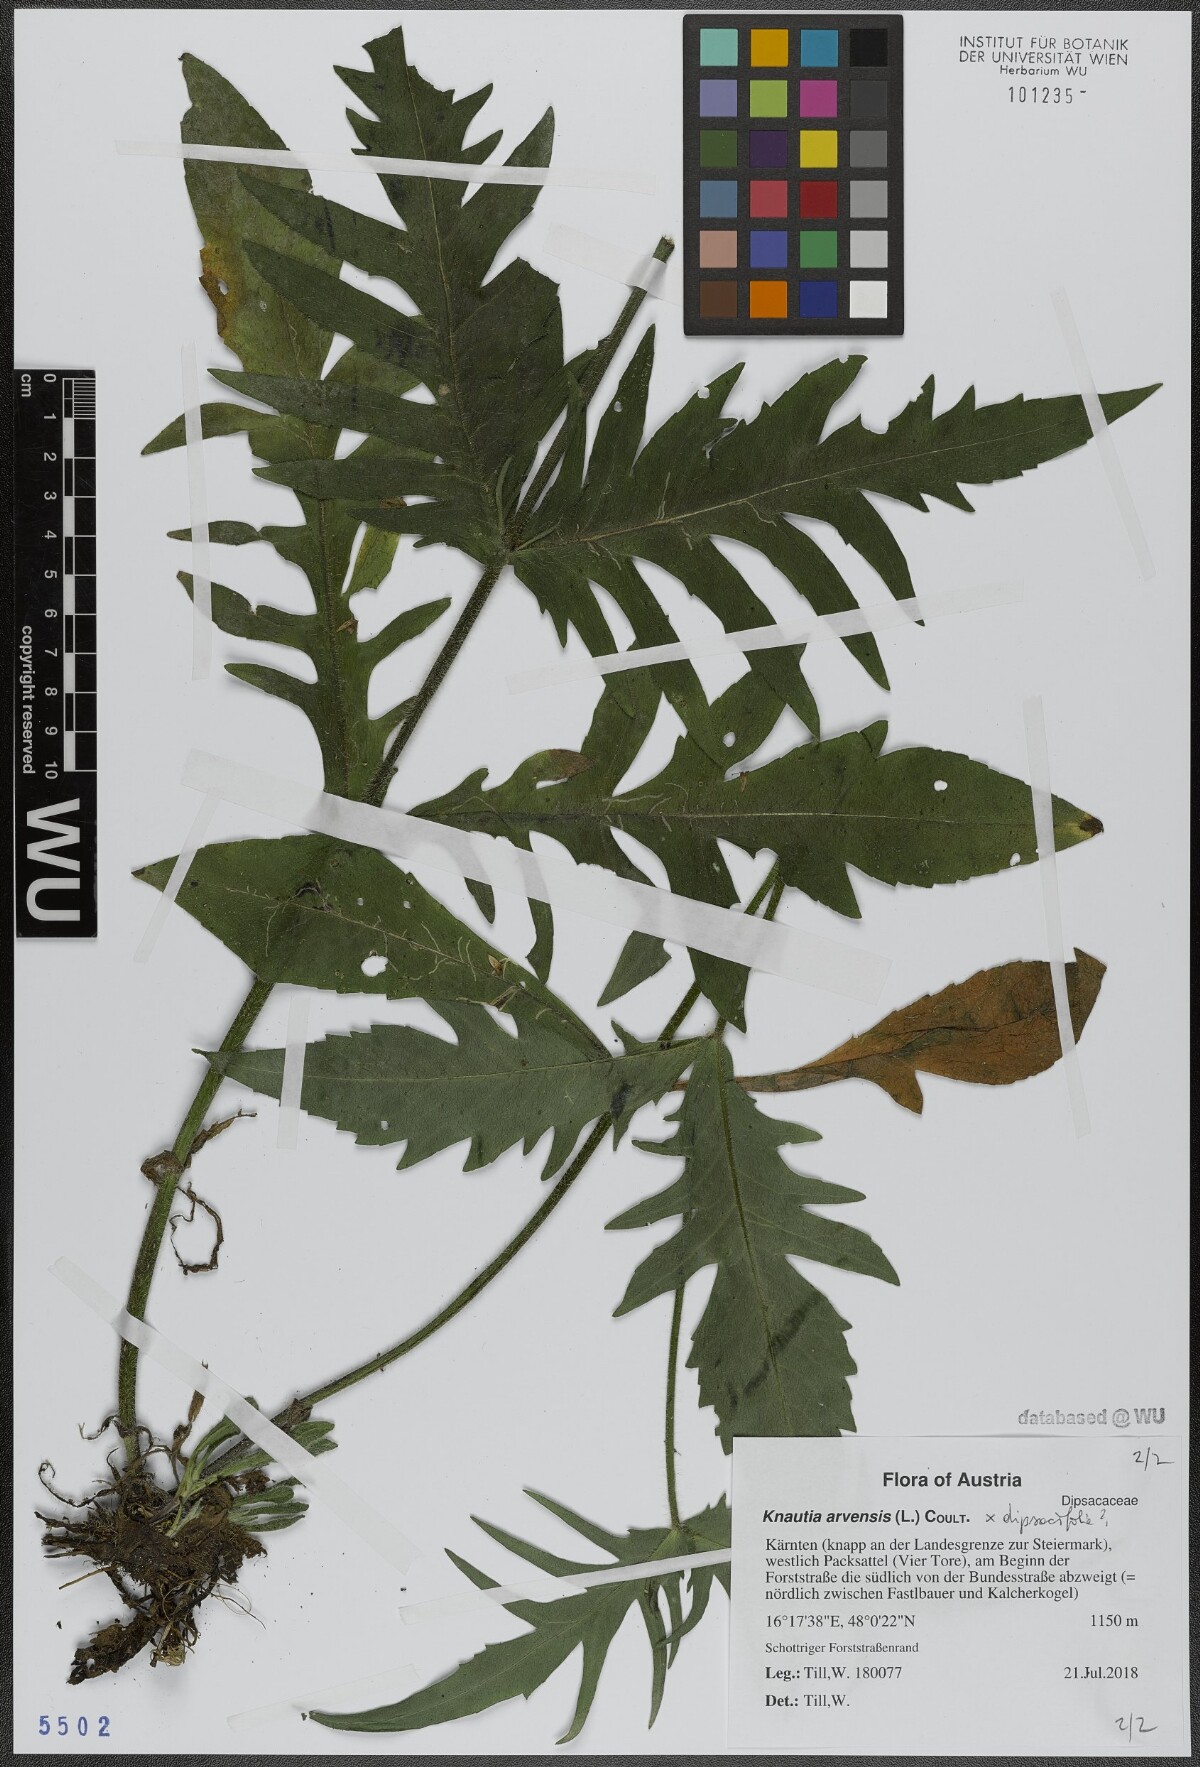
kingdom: Plantae
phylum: Tracheophyta
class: Magnoliopsida
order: Dipsacales
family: Caprifoliaceae
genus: Knautia
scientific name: Knautia arvensis
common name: Field scabiosa
